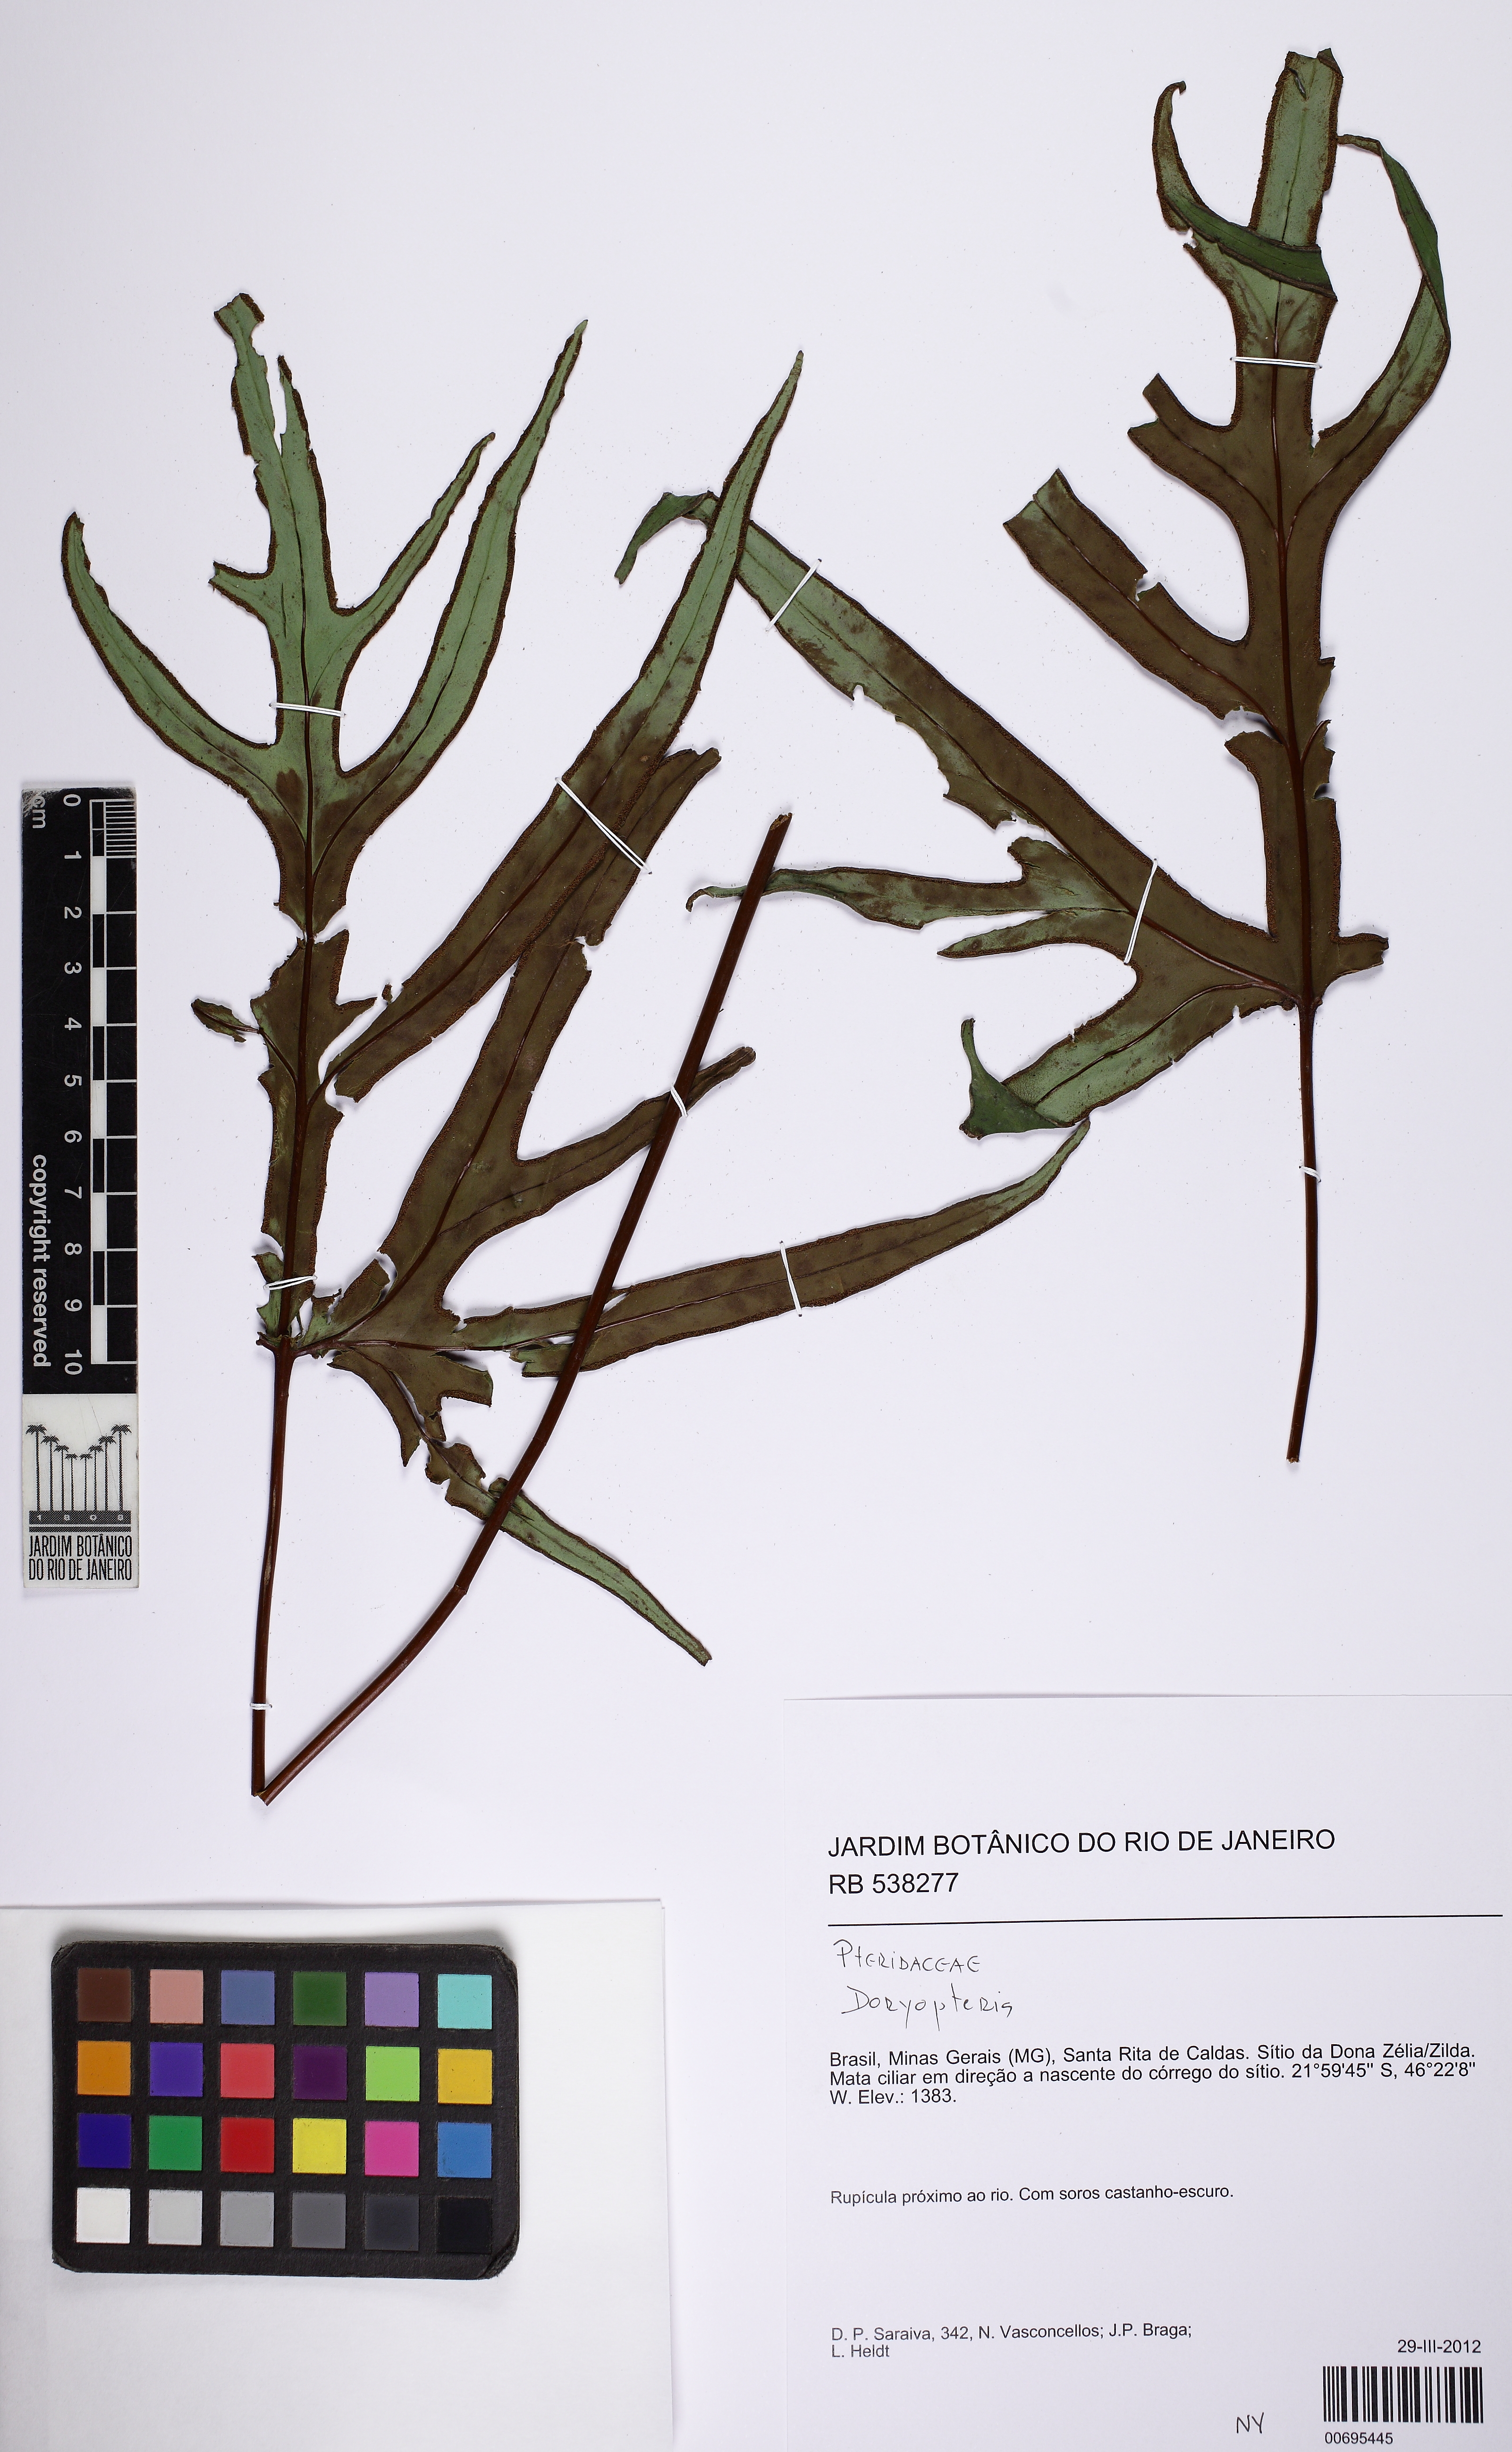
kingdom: Plantae
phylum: Tracheophyta
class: Polypodiopsida
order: Polypodiales
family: Pteridaceae
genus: Hemionitis
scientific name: Hemionitis Doryopteris patula
